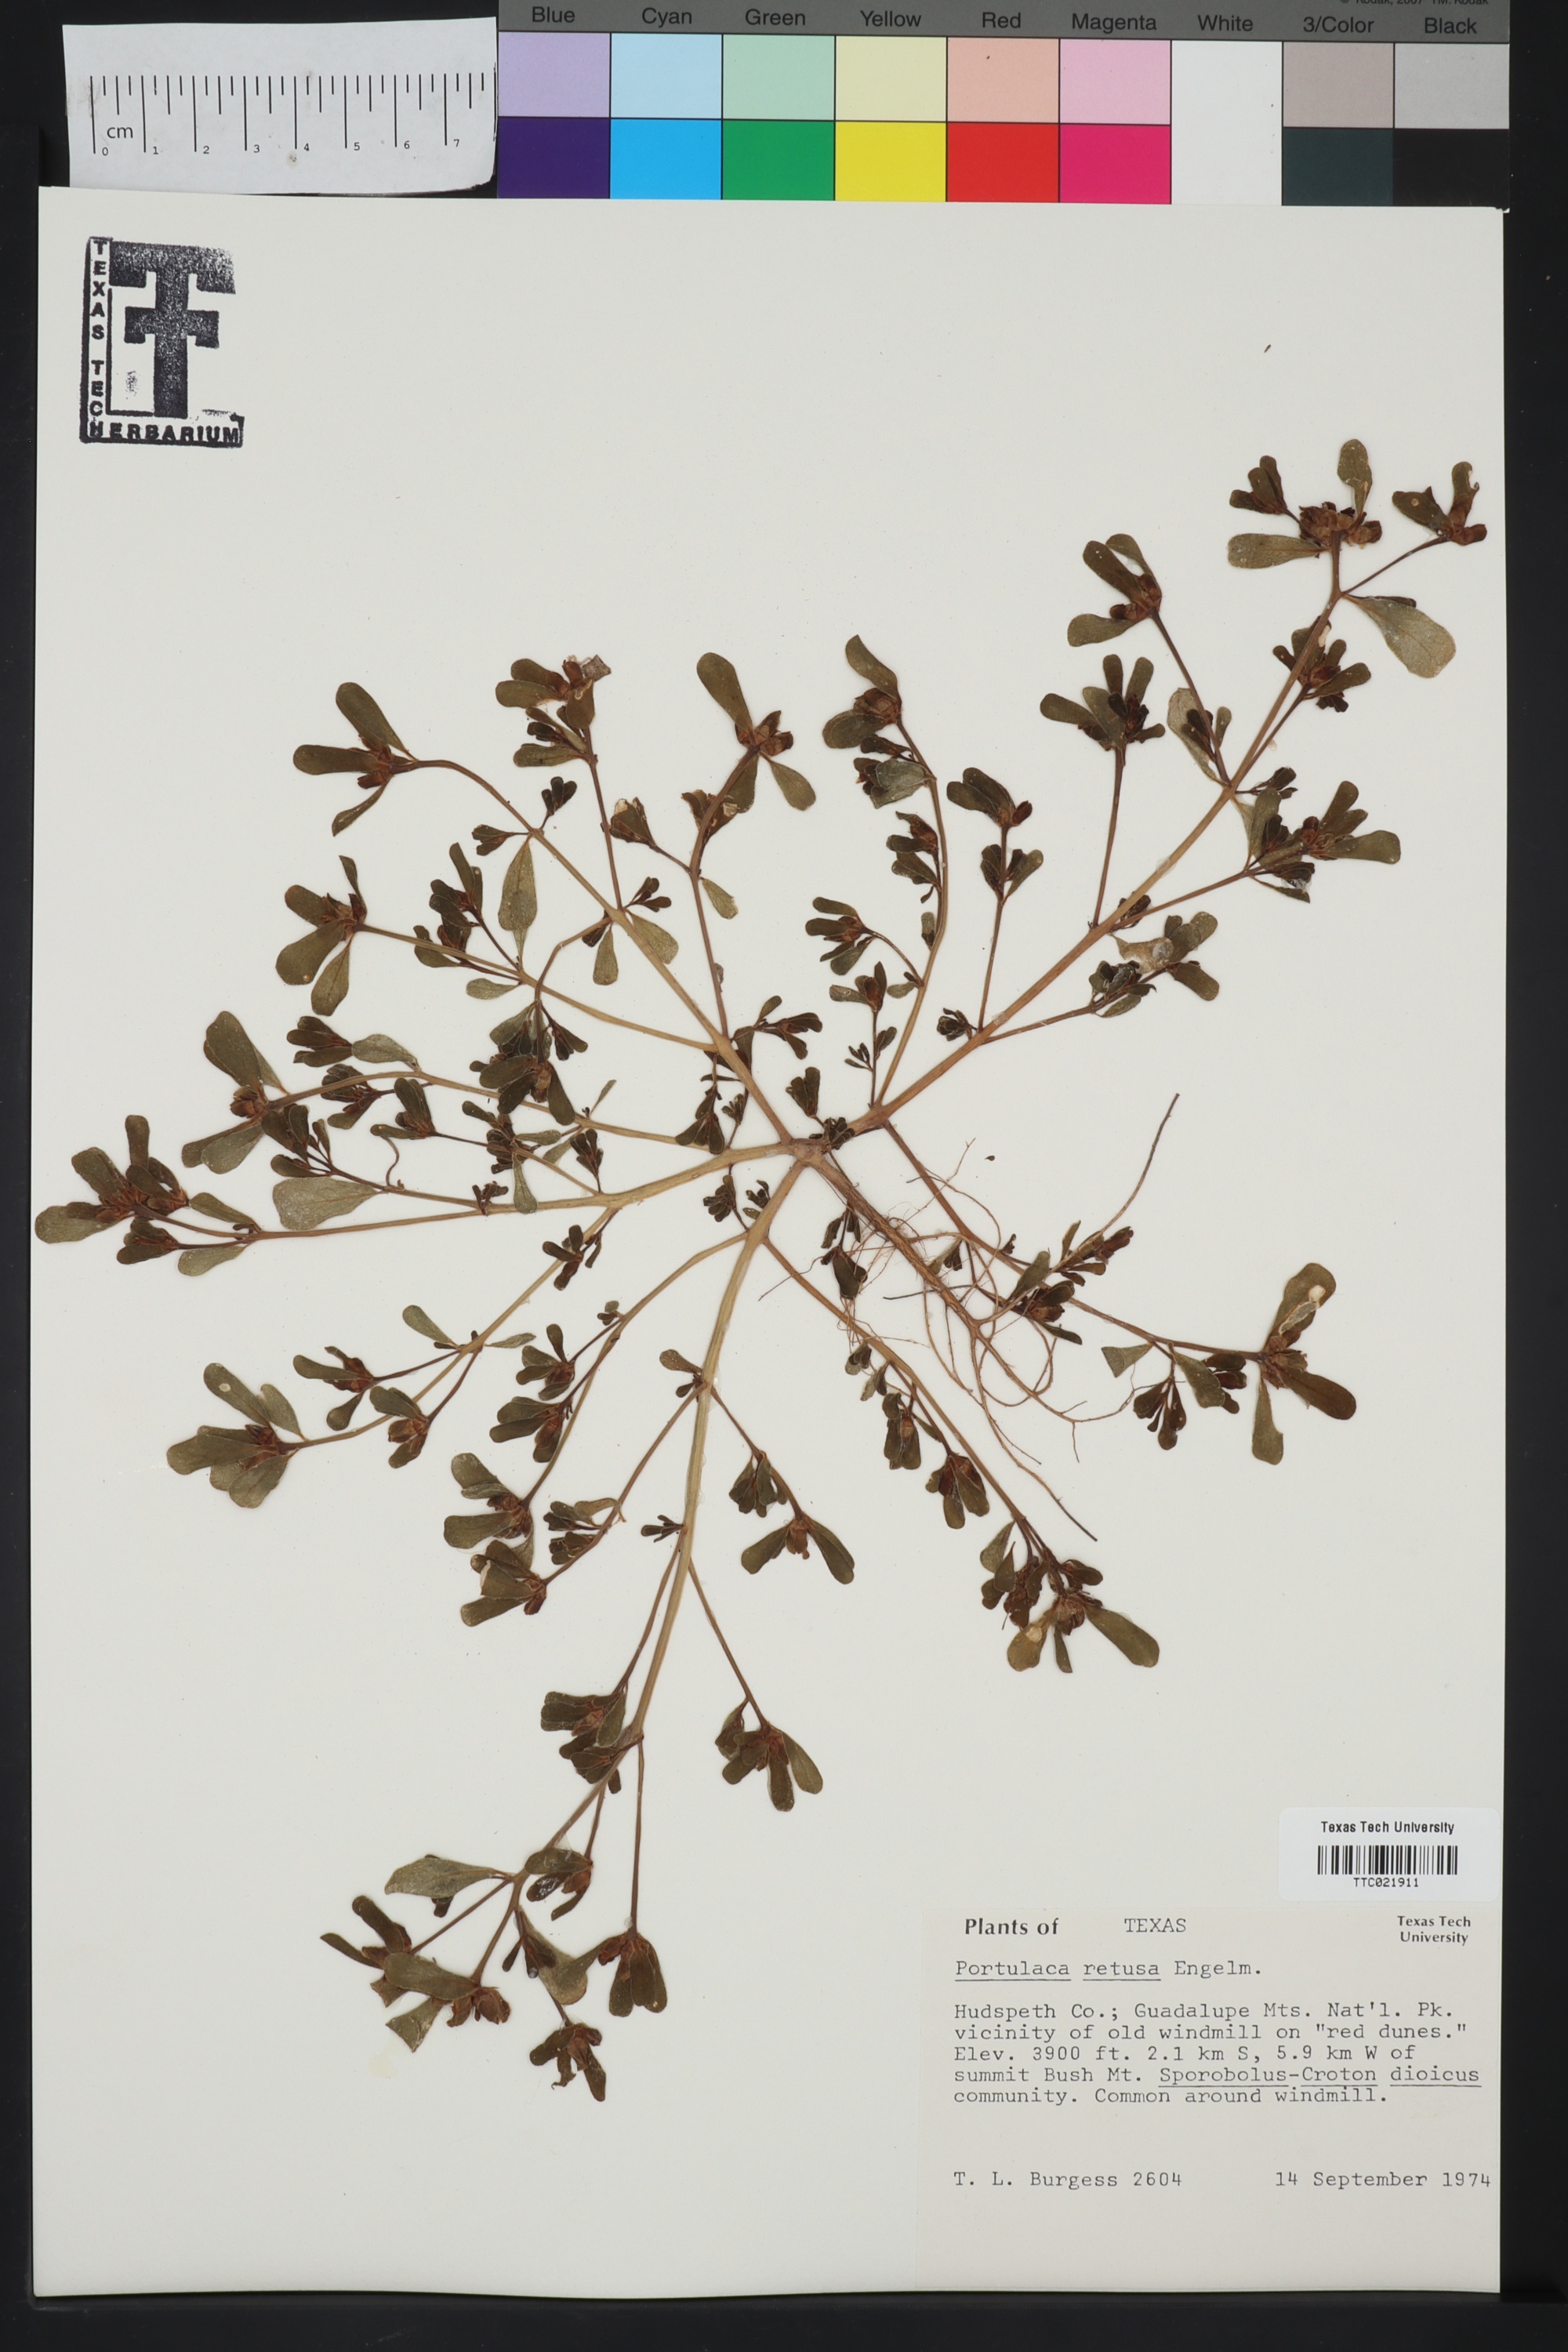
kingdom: Plantae
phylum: Tracheophyta
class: Magnoliopsida
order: Caryophyllales
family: Portulacaceae
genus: Portulaca
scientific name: Portulaca oleracea
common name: Common purslane
